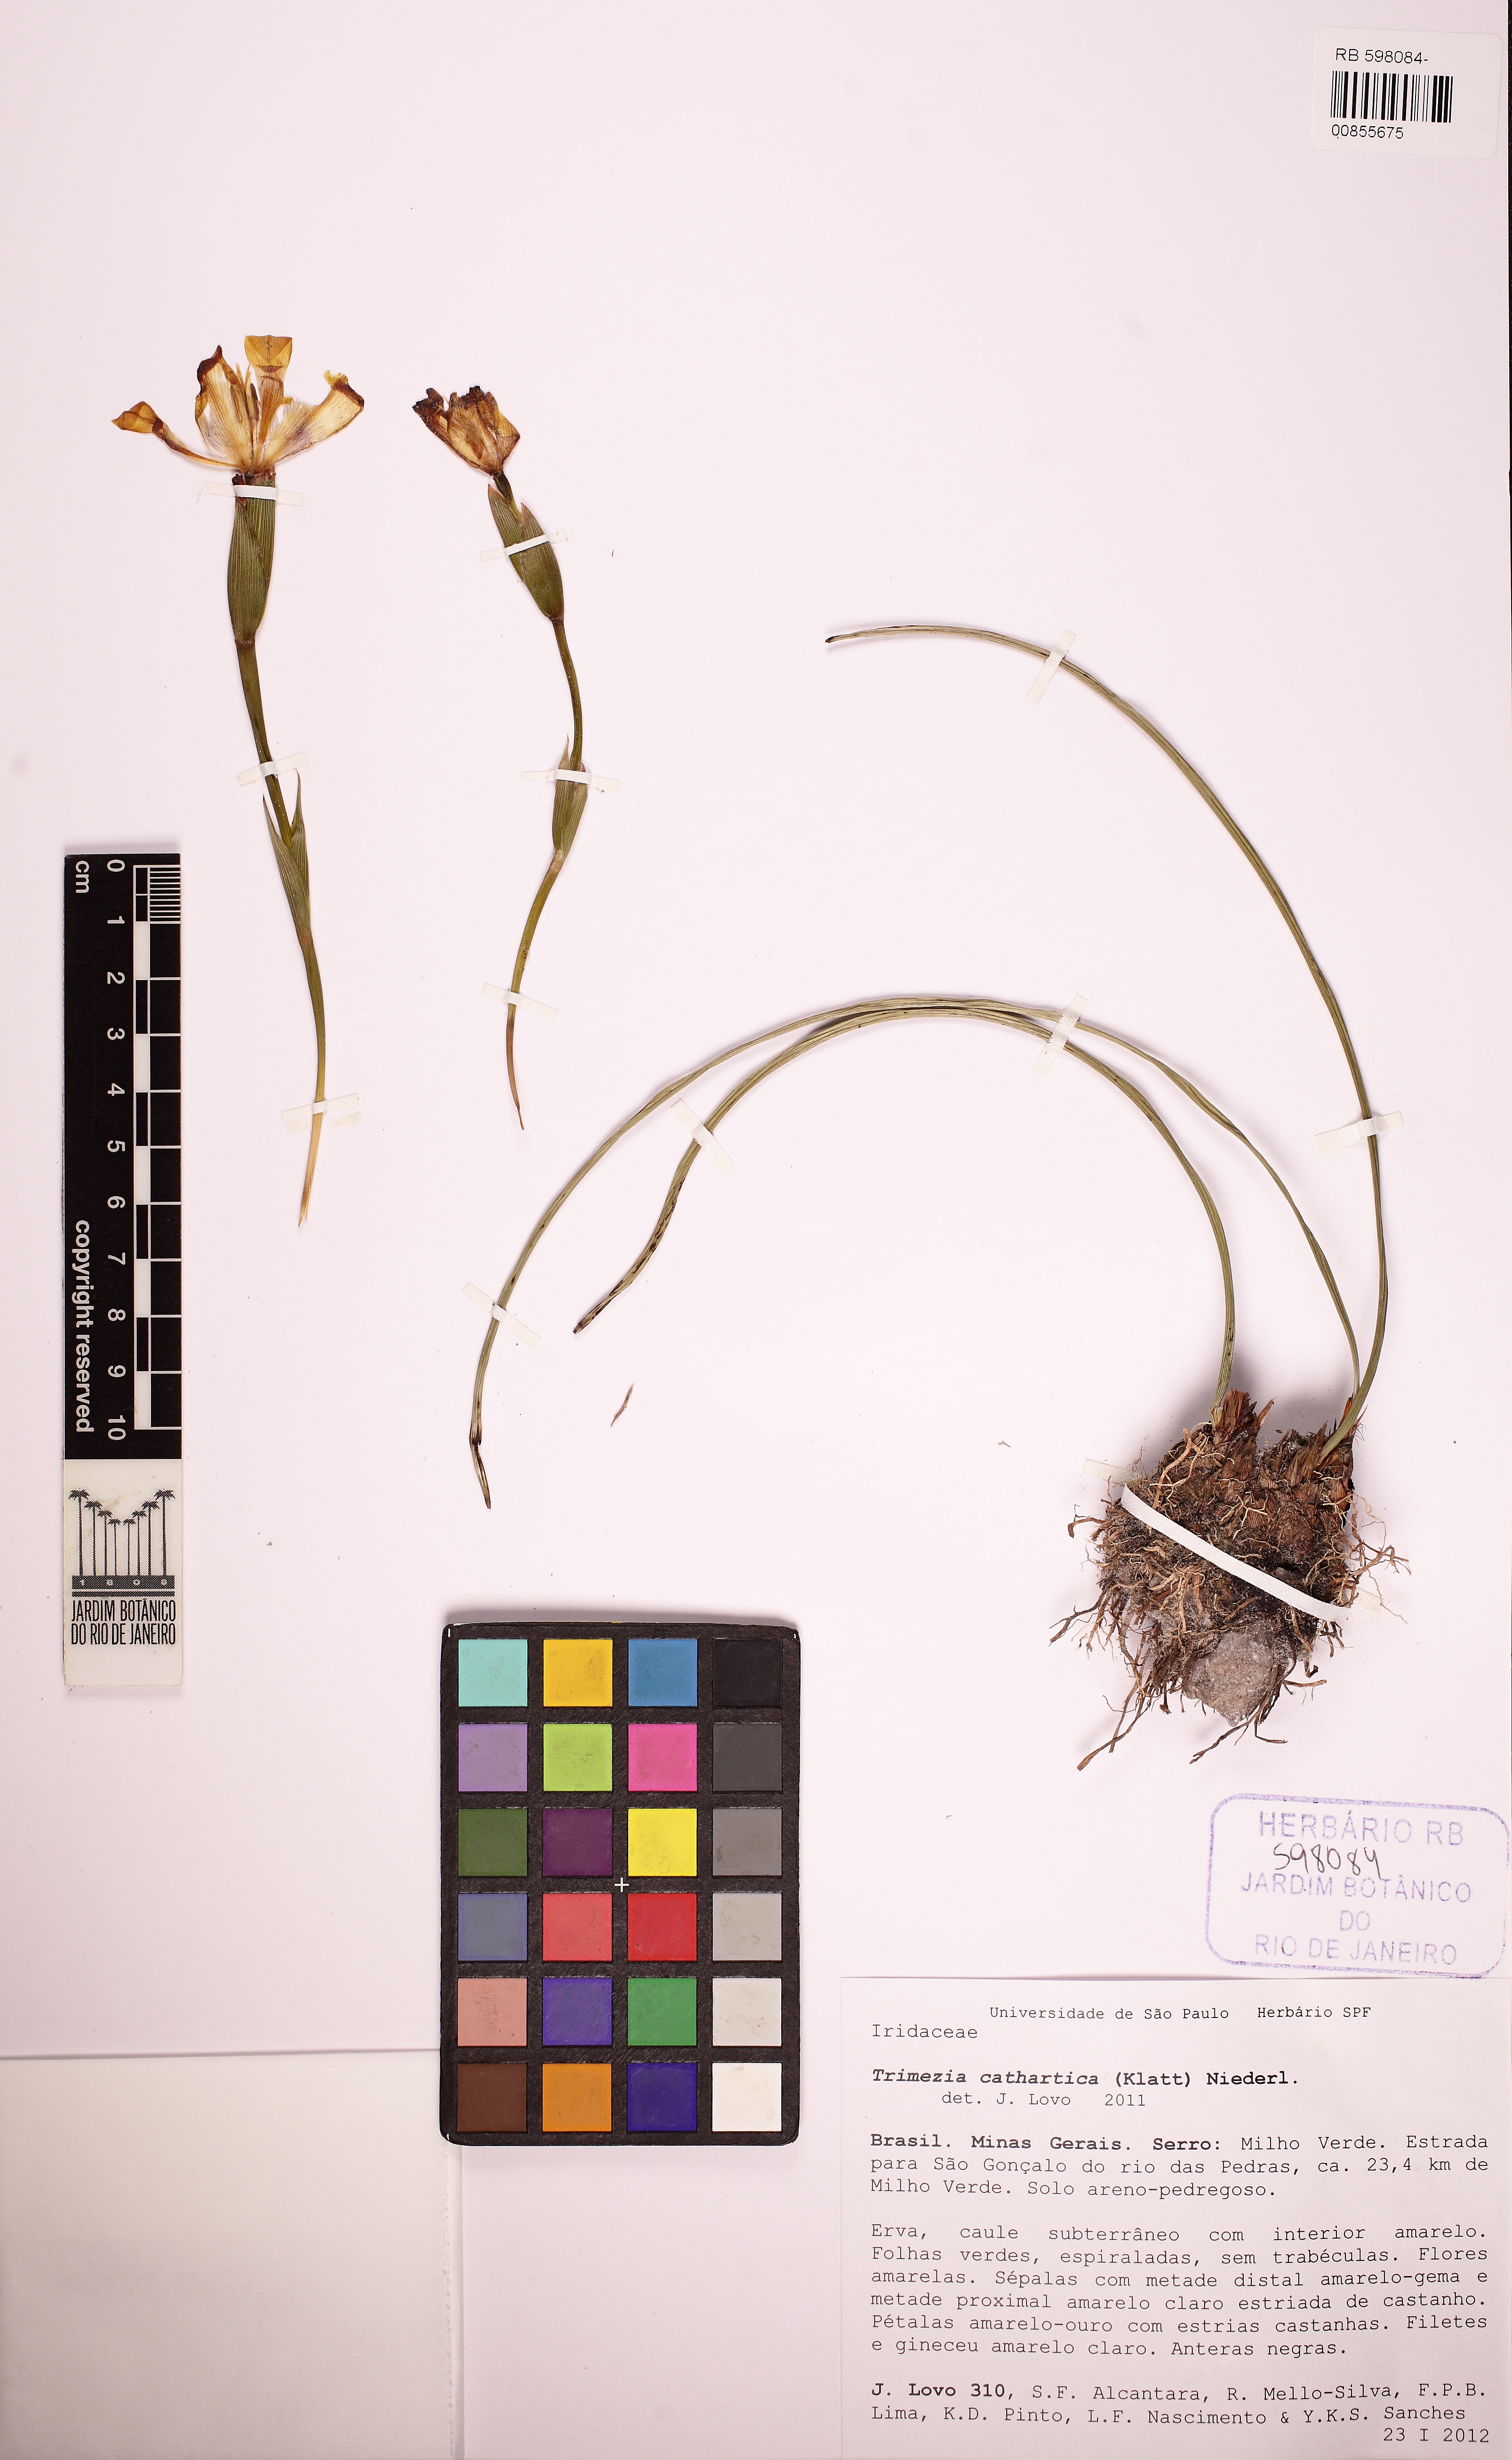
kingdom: Plantae
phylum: Tracheophyta
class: Liliopsida
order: Asparagales
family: Iridaceae
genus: Trimezia
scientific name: Trimezia cathartica
